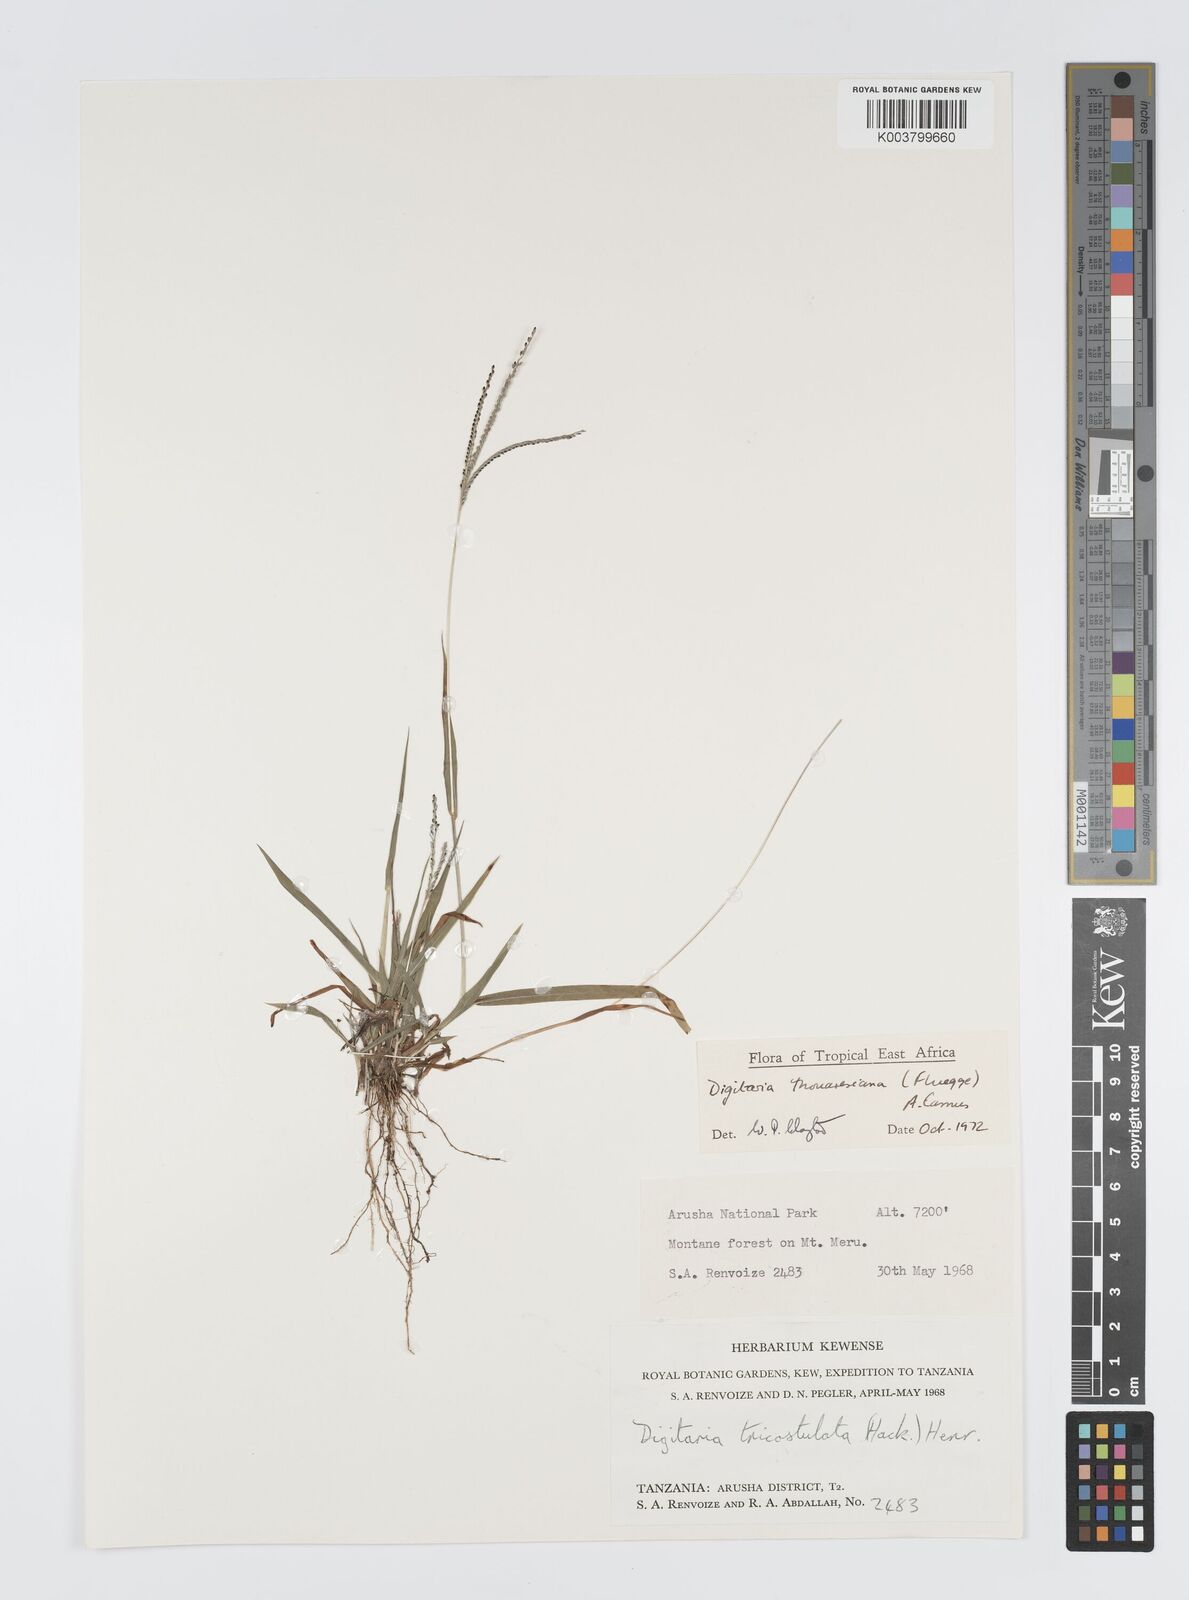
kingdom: Plantae
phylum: Tracheophyta
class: Liliopsida
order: Poales
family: Poaceae
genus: Digitaria
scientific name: Digitaria thouarsiana
